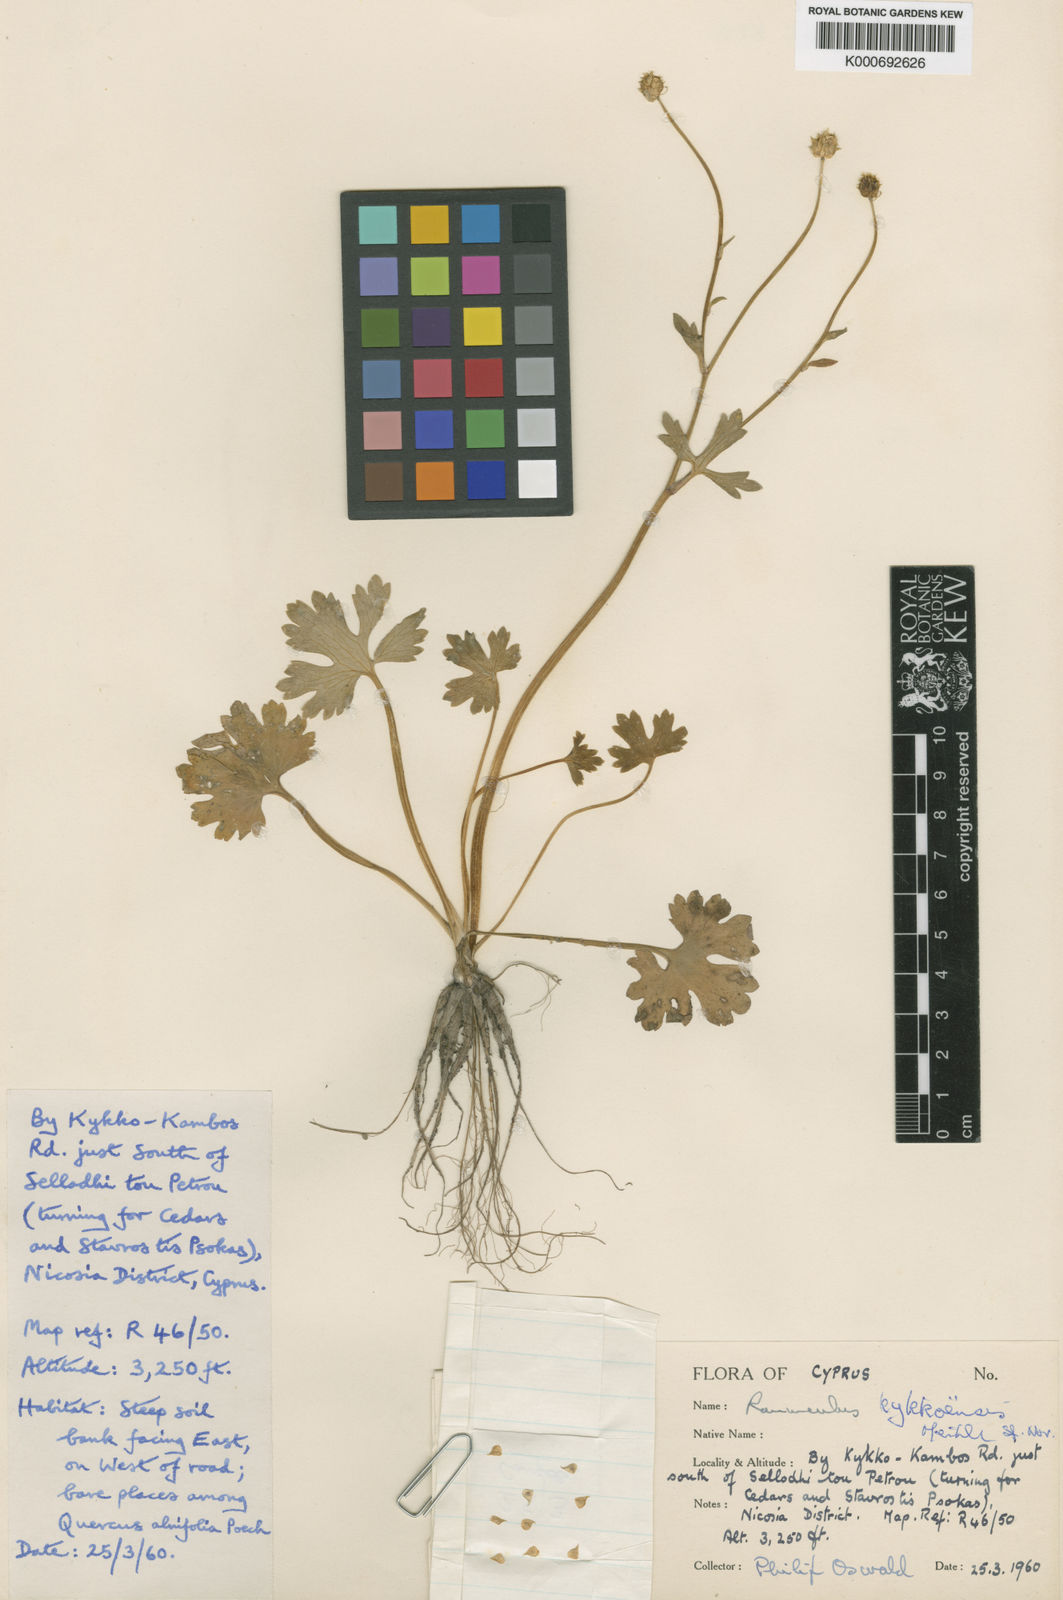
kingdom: Plantae
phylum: Tracheophyta
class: Magnoliopsida
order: Ranunculales
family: Ranunculaceae
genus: Ranunculus
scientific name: Ranunculus kykkoensis
